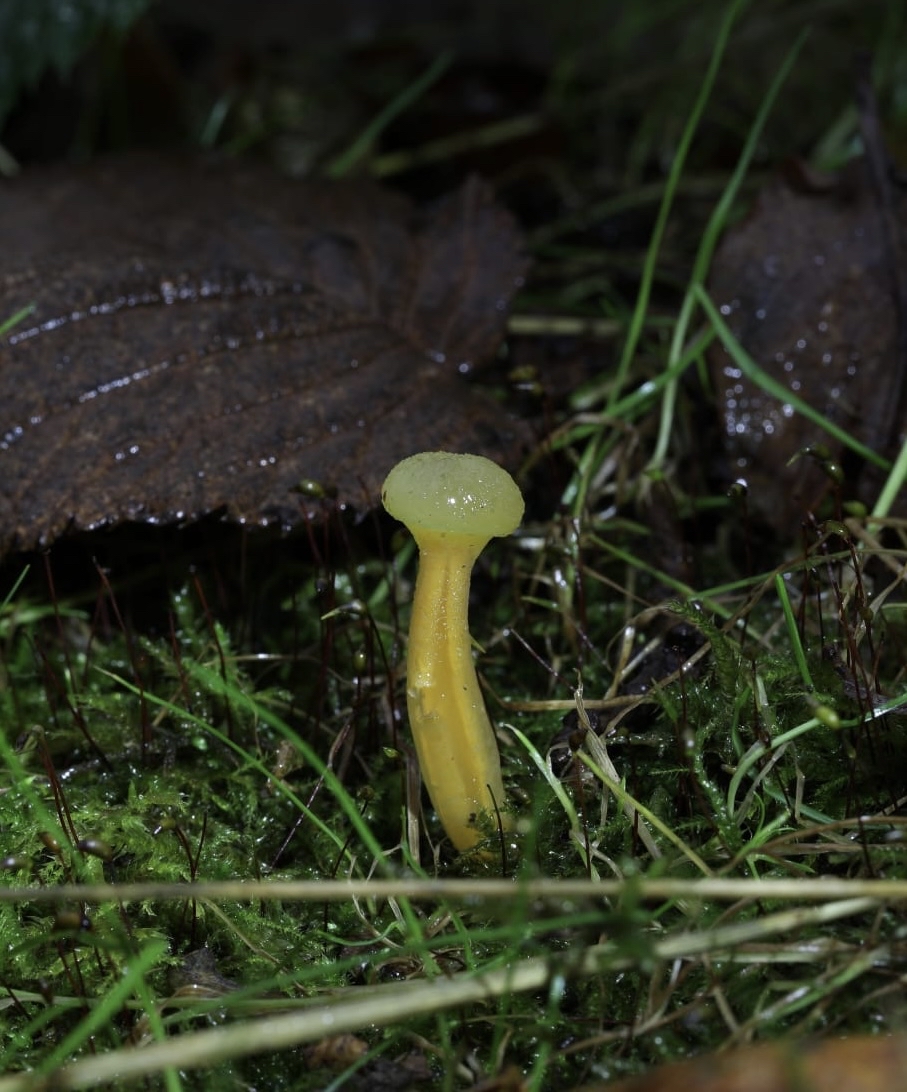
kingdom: Fungi
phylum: Ascomycota
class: Leotiomycetes
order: Leotiales
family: Leotiaceae
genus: Leotia
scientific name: Leotia lubrica
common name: ravsvamp
